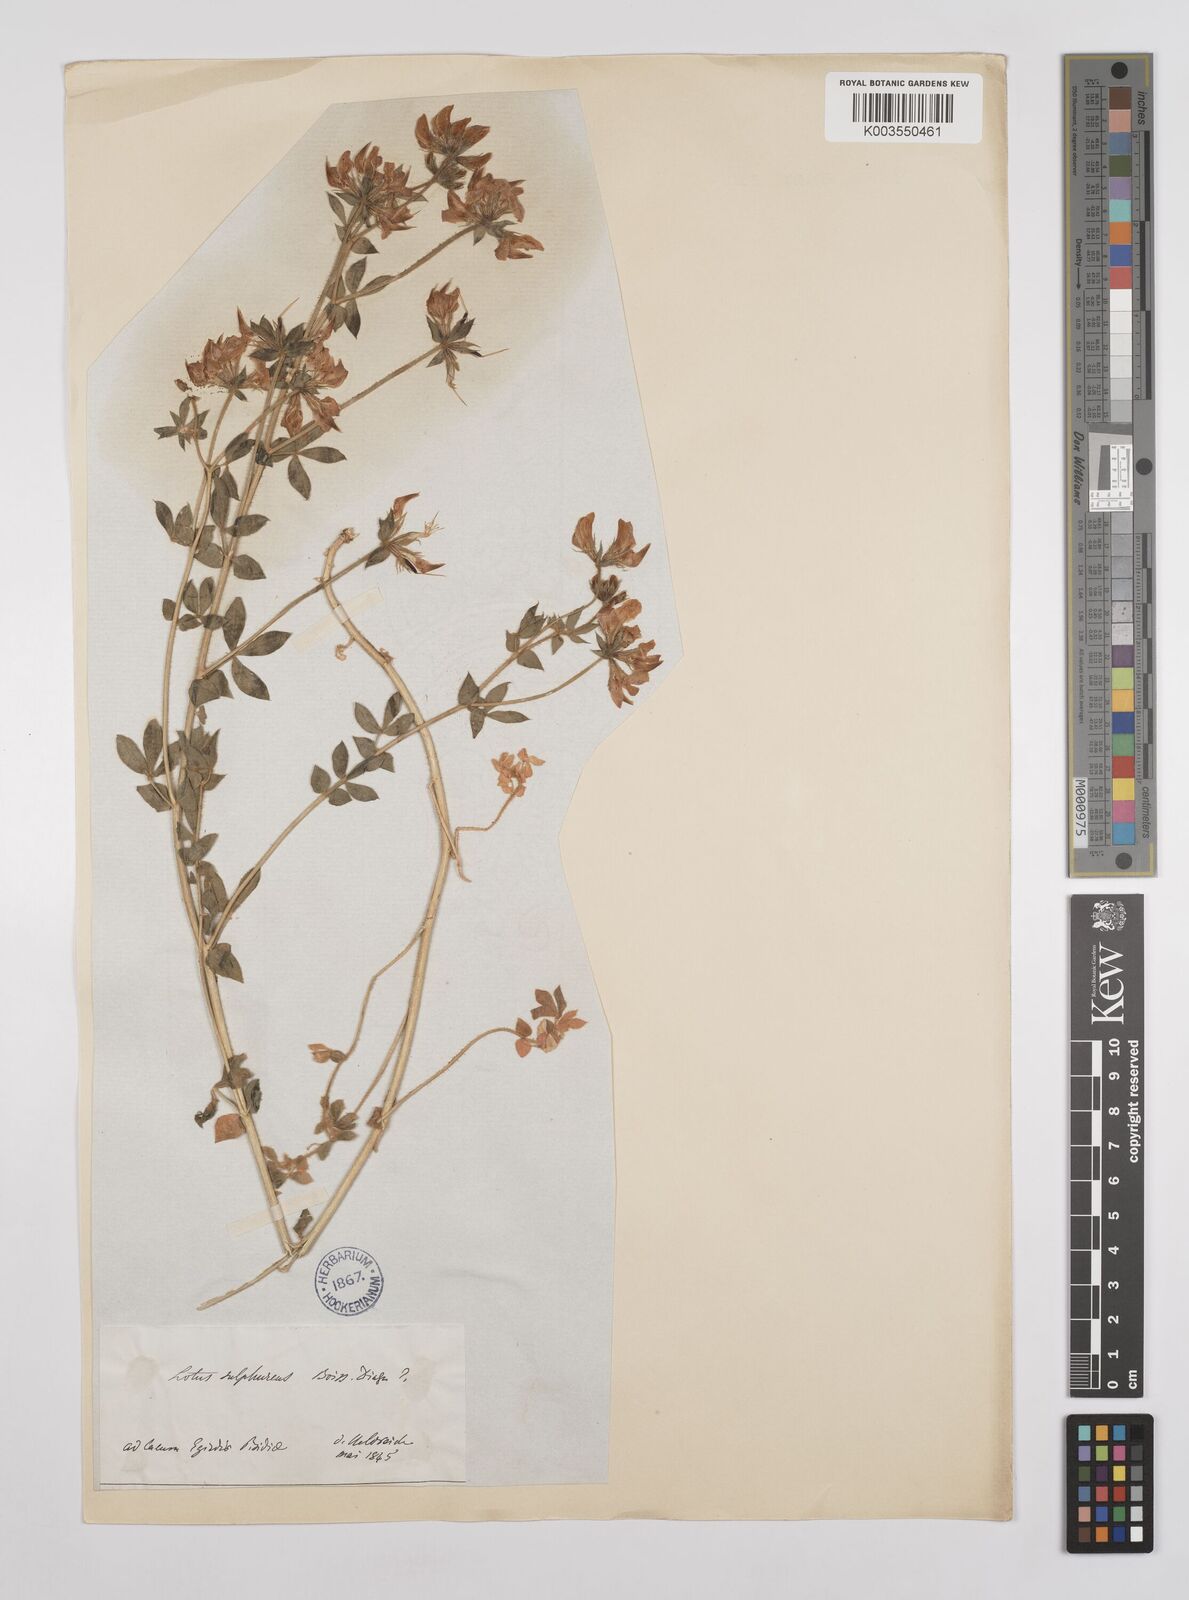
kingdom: Plantae
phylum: Tracheophyta
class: Magnoliopsida
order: Fabales
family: Fabaceae
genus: Lotus
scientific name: Lotus aegaeus
